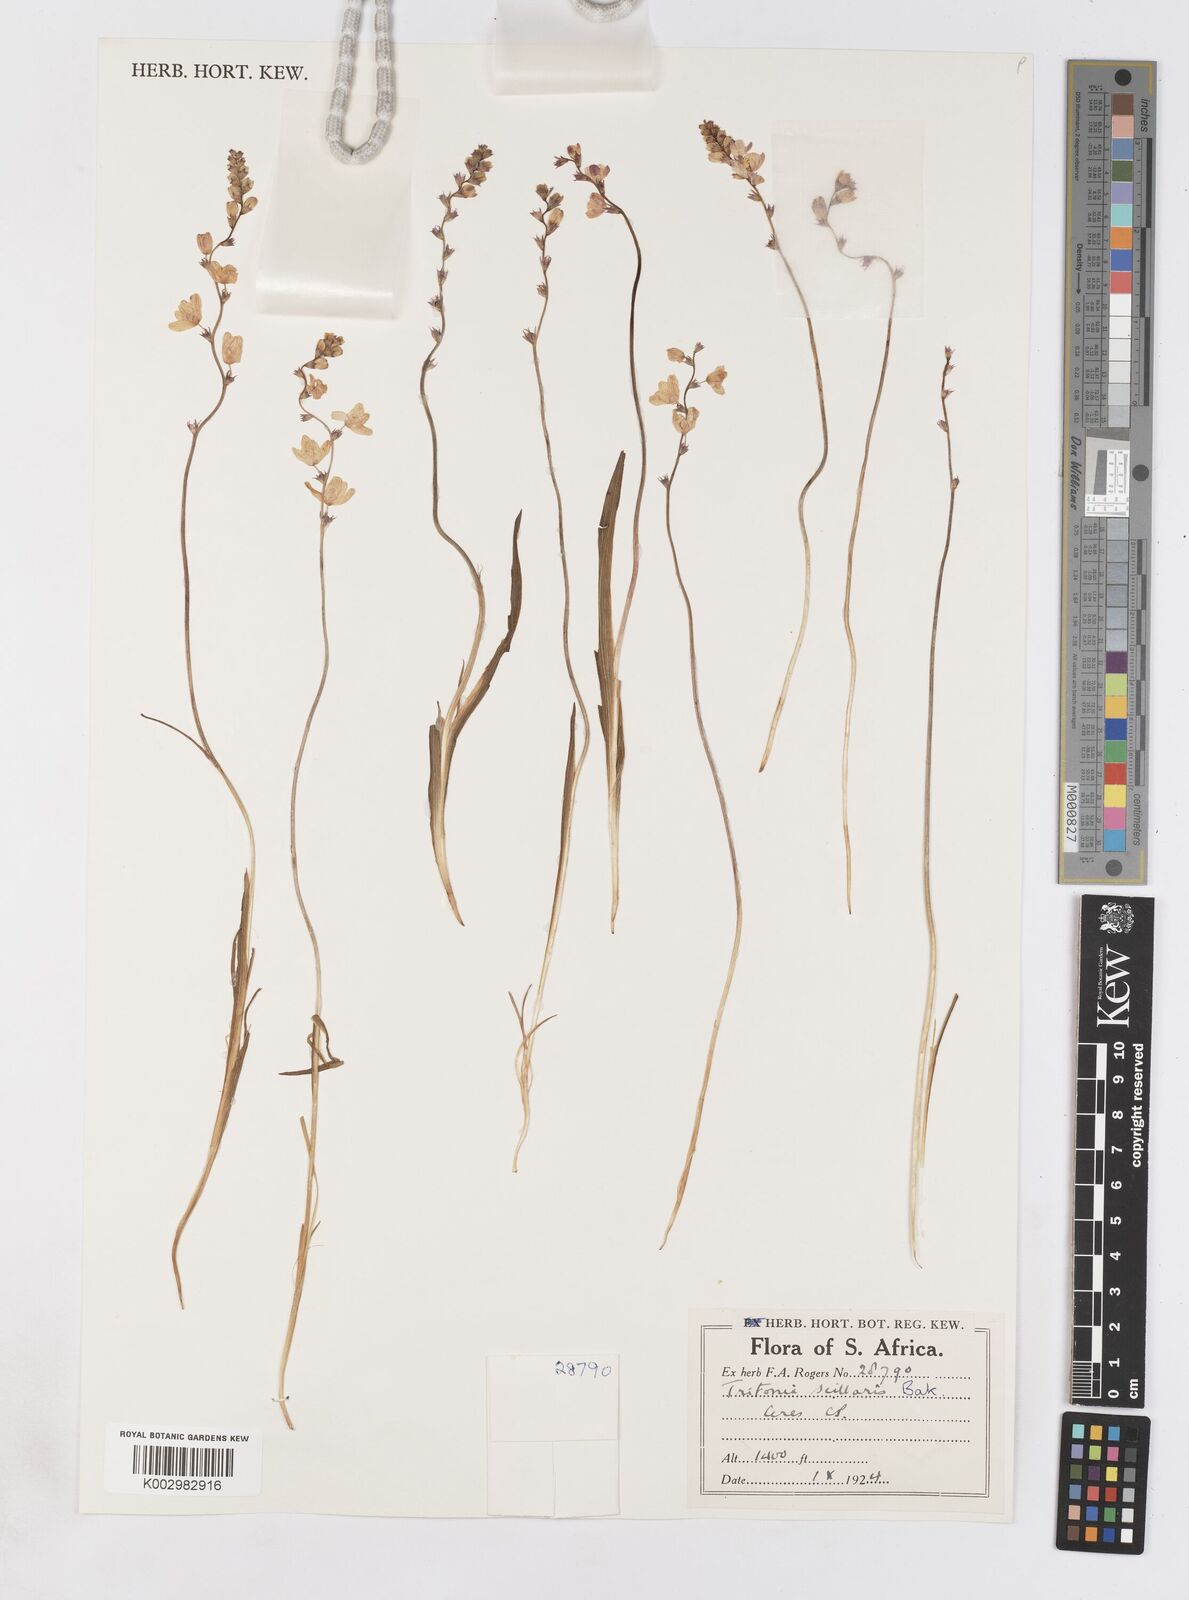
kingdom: Plantae
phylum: Tracheophyta
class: Liliopsida
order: Asparagales
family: Iridaceae
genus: Ixia
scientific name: Ixia scillaris
